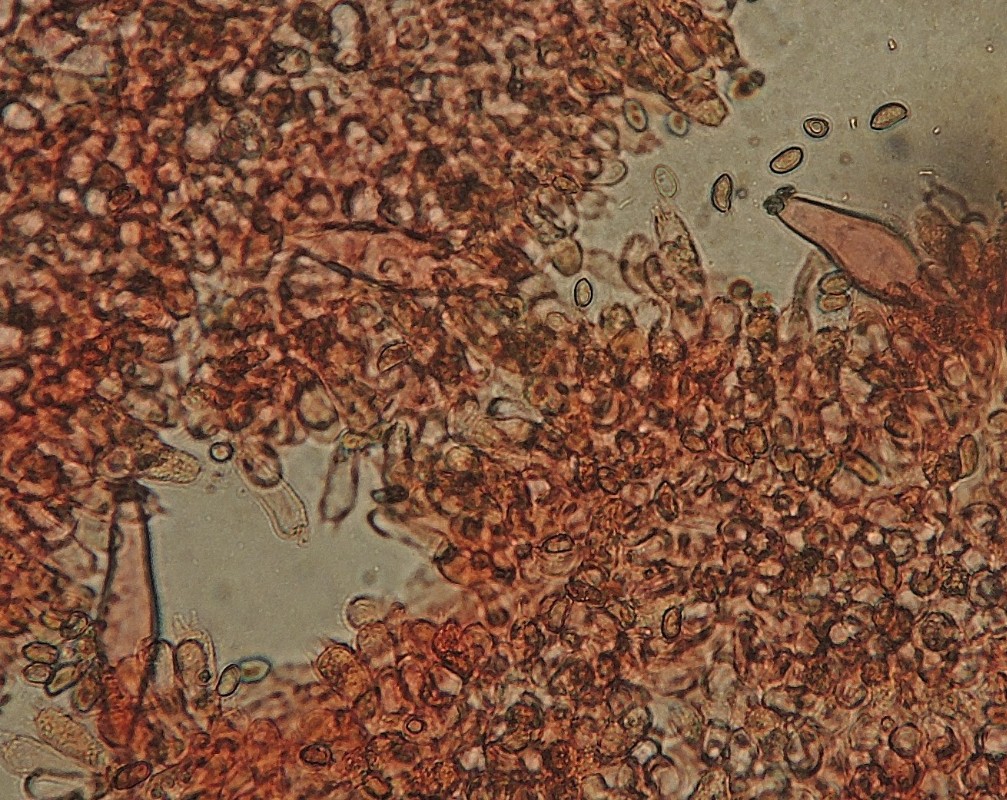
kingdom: Fungi
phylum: Basidiomycota
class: Agaricomycetes
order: Agaricales
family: Inocybaceae
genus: Inocybe
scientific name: Inocybe
